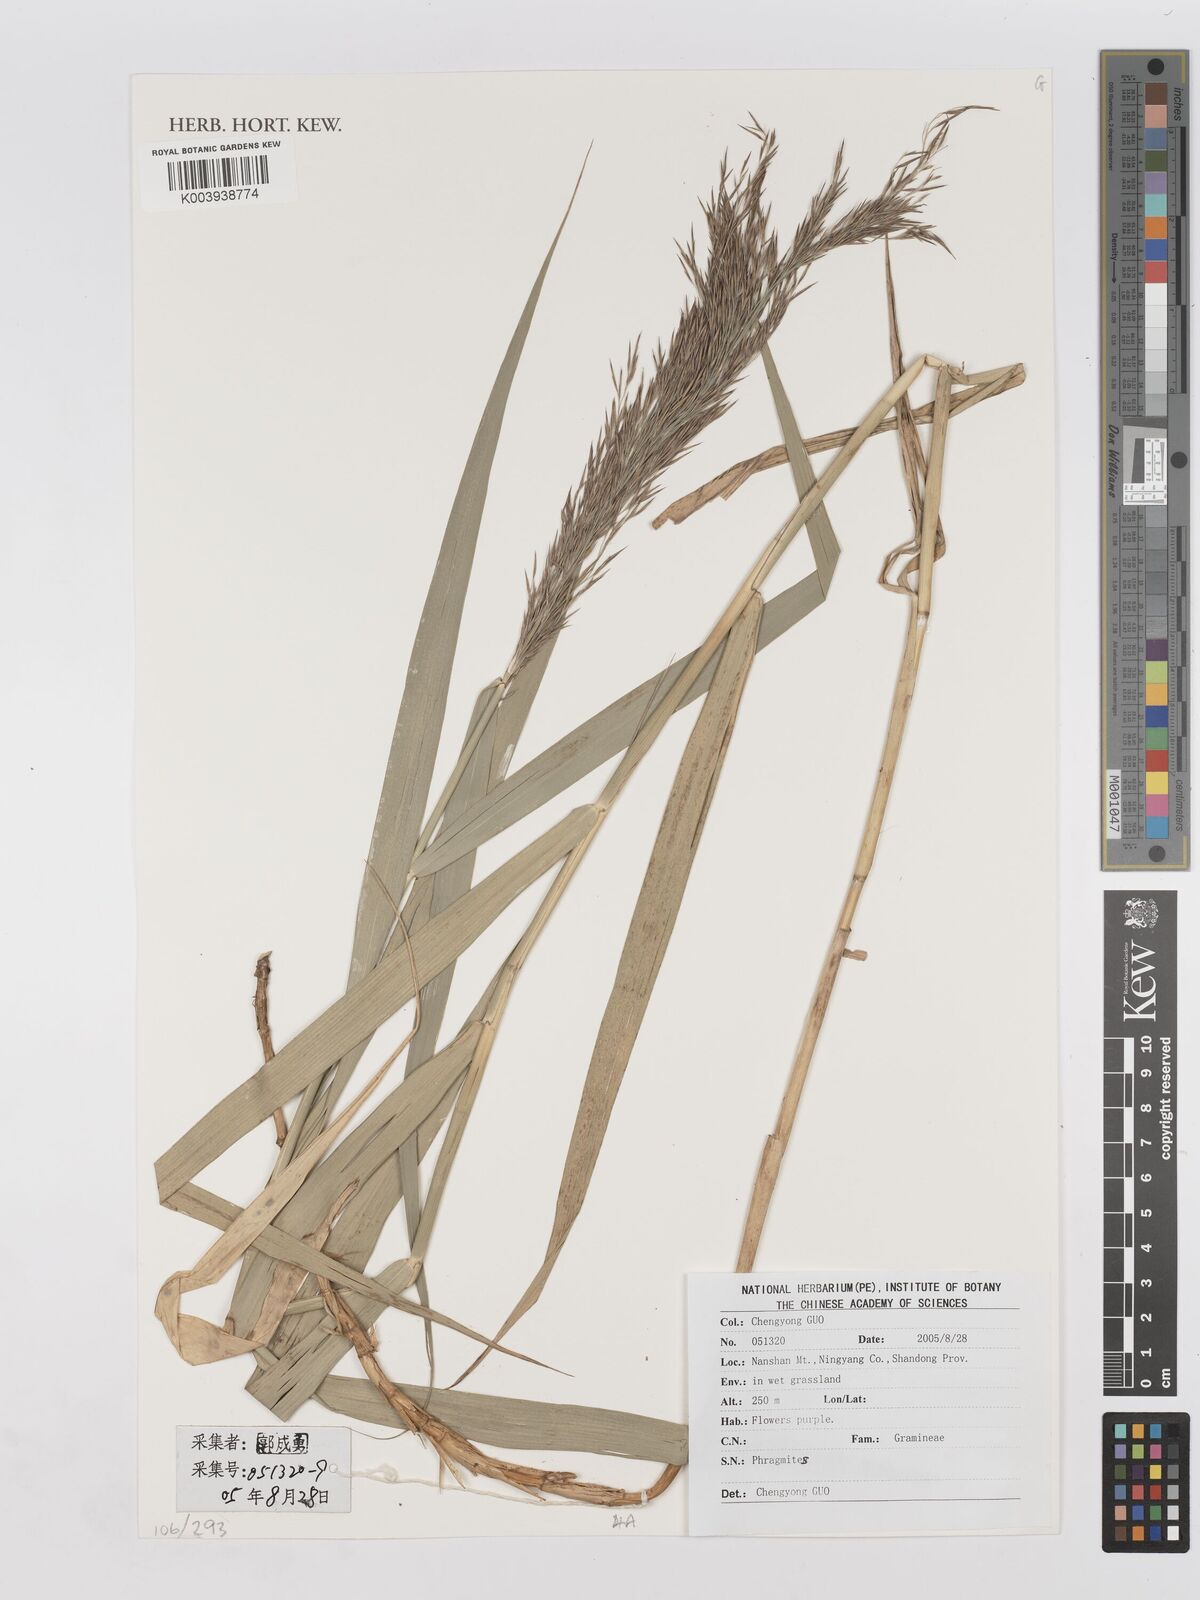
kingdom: Plantae
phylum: Tracheophyta
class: Liliopsida
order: Poales
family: Poaceae
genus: Phragmites
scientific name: Phragmites
